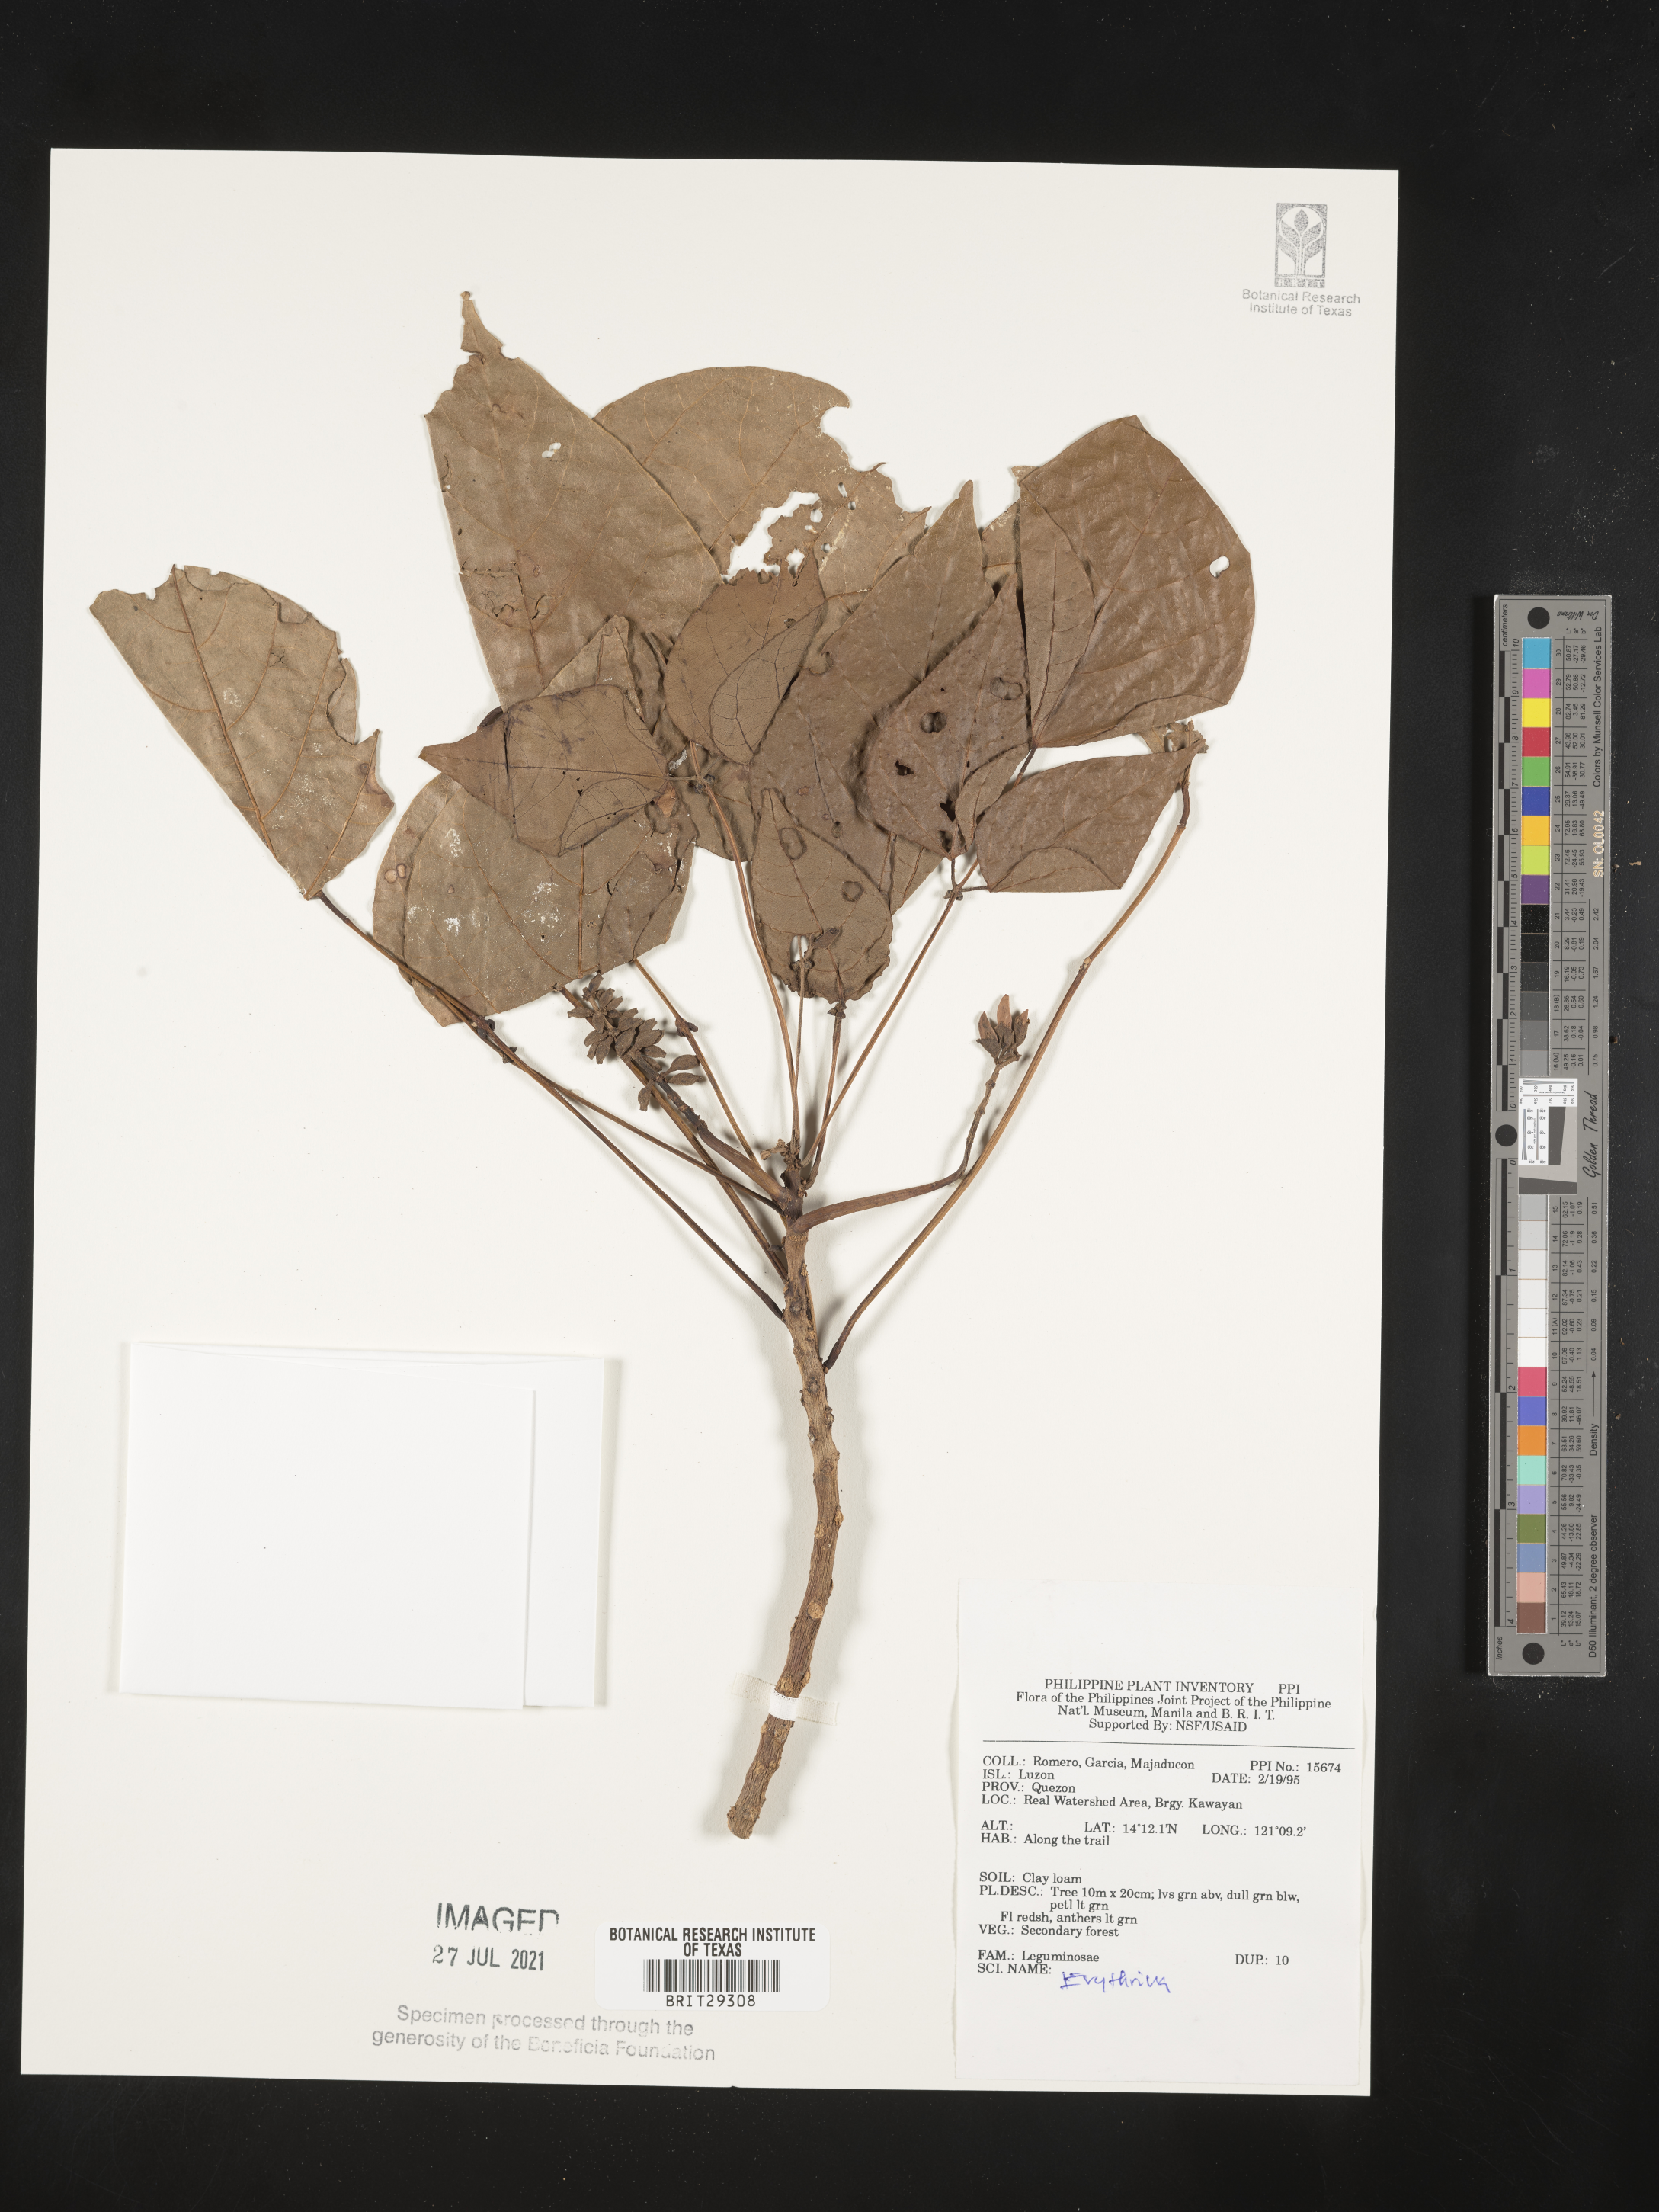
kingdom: Plantae
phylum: Tracheophyta
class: Magnoliopsida
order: Fabales
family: Fabaceae
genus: Erythrina
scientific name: Erythrina
